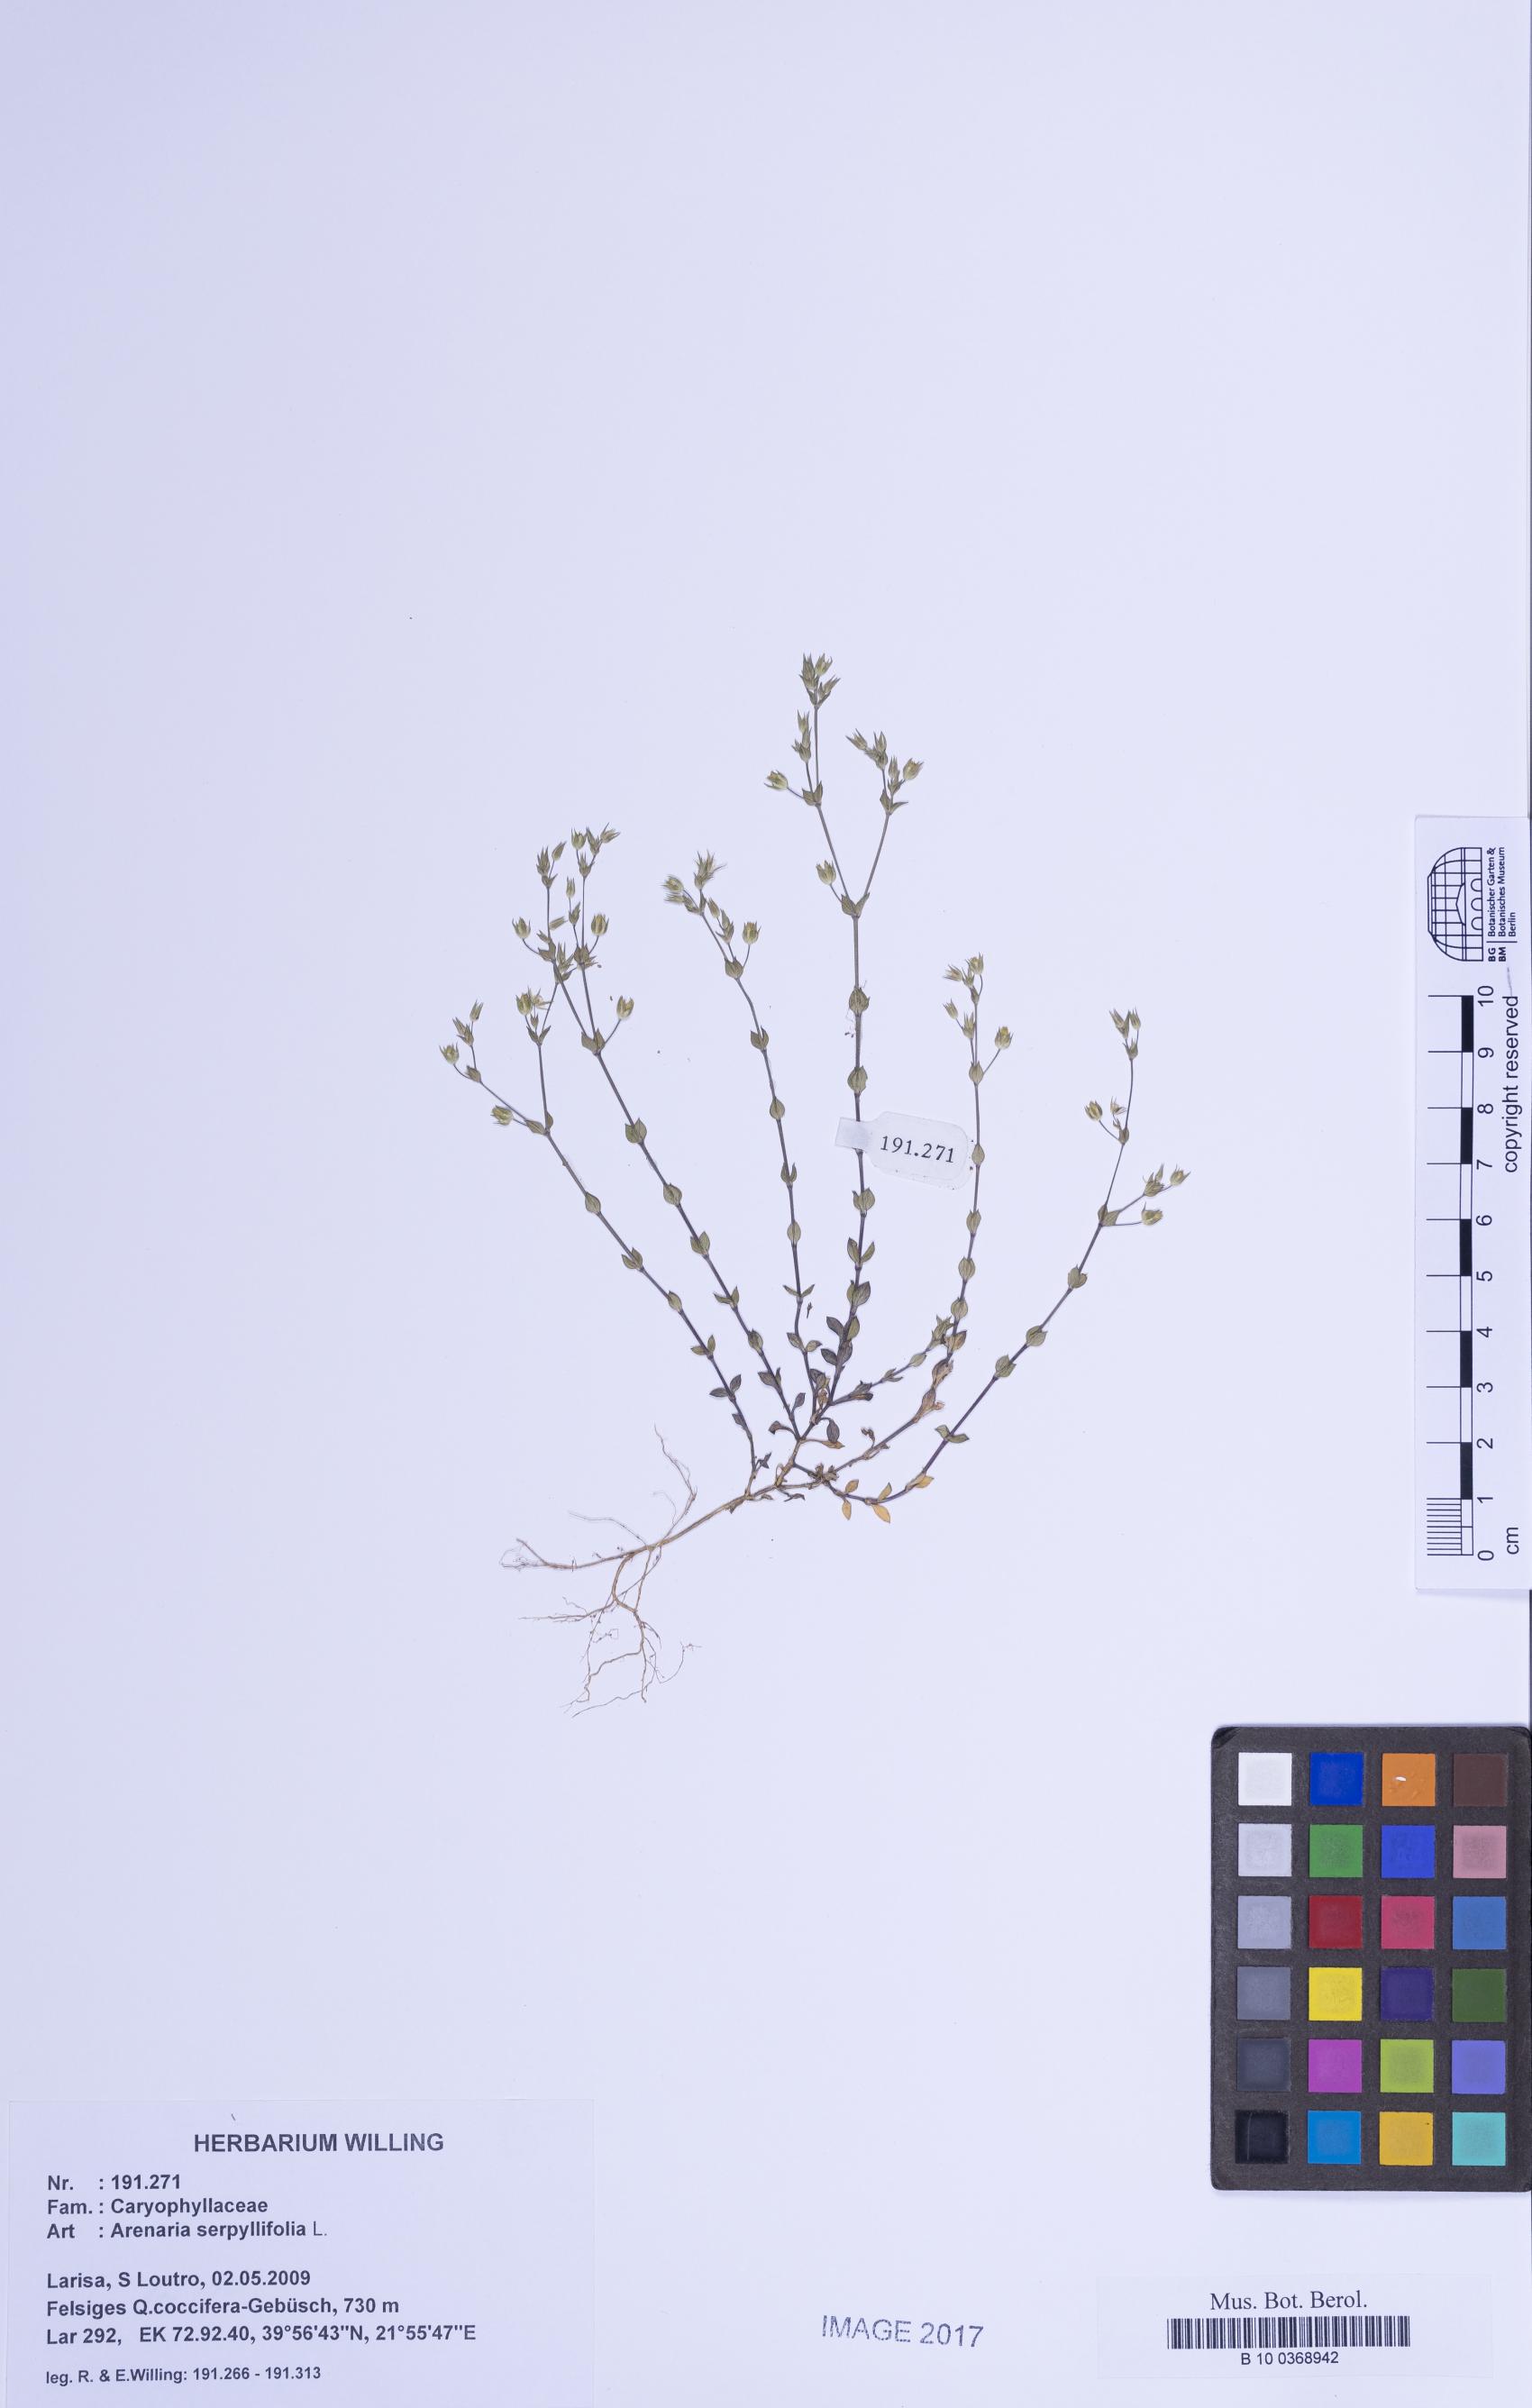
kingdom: Plantae
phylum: Tracheophyta
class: Magnoliopsida
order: Caryophyllales
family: Caryophyllaceae
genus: Arenaria
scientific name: Arenaria serpyllifolia
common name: Thyme-leaved sandwort
